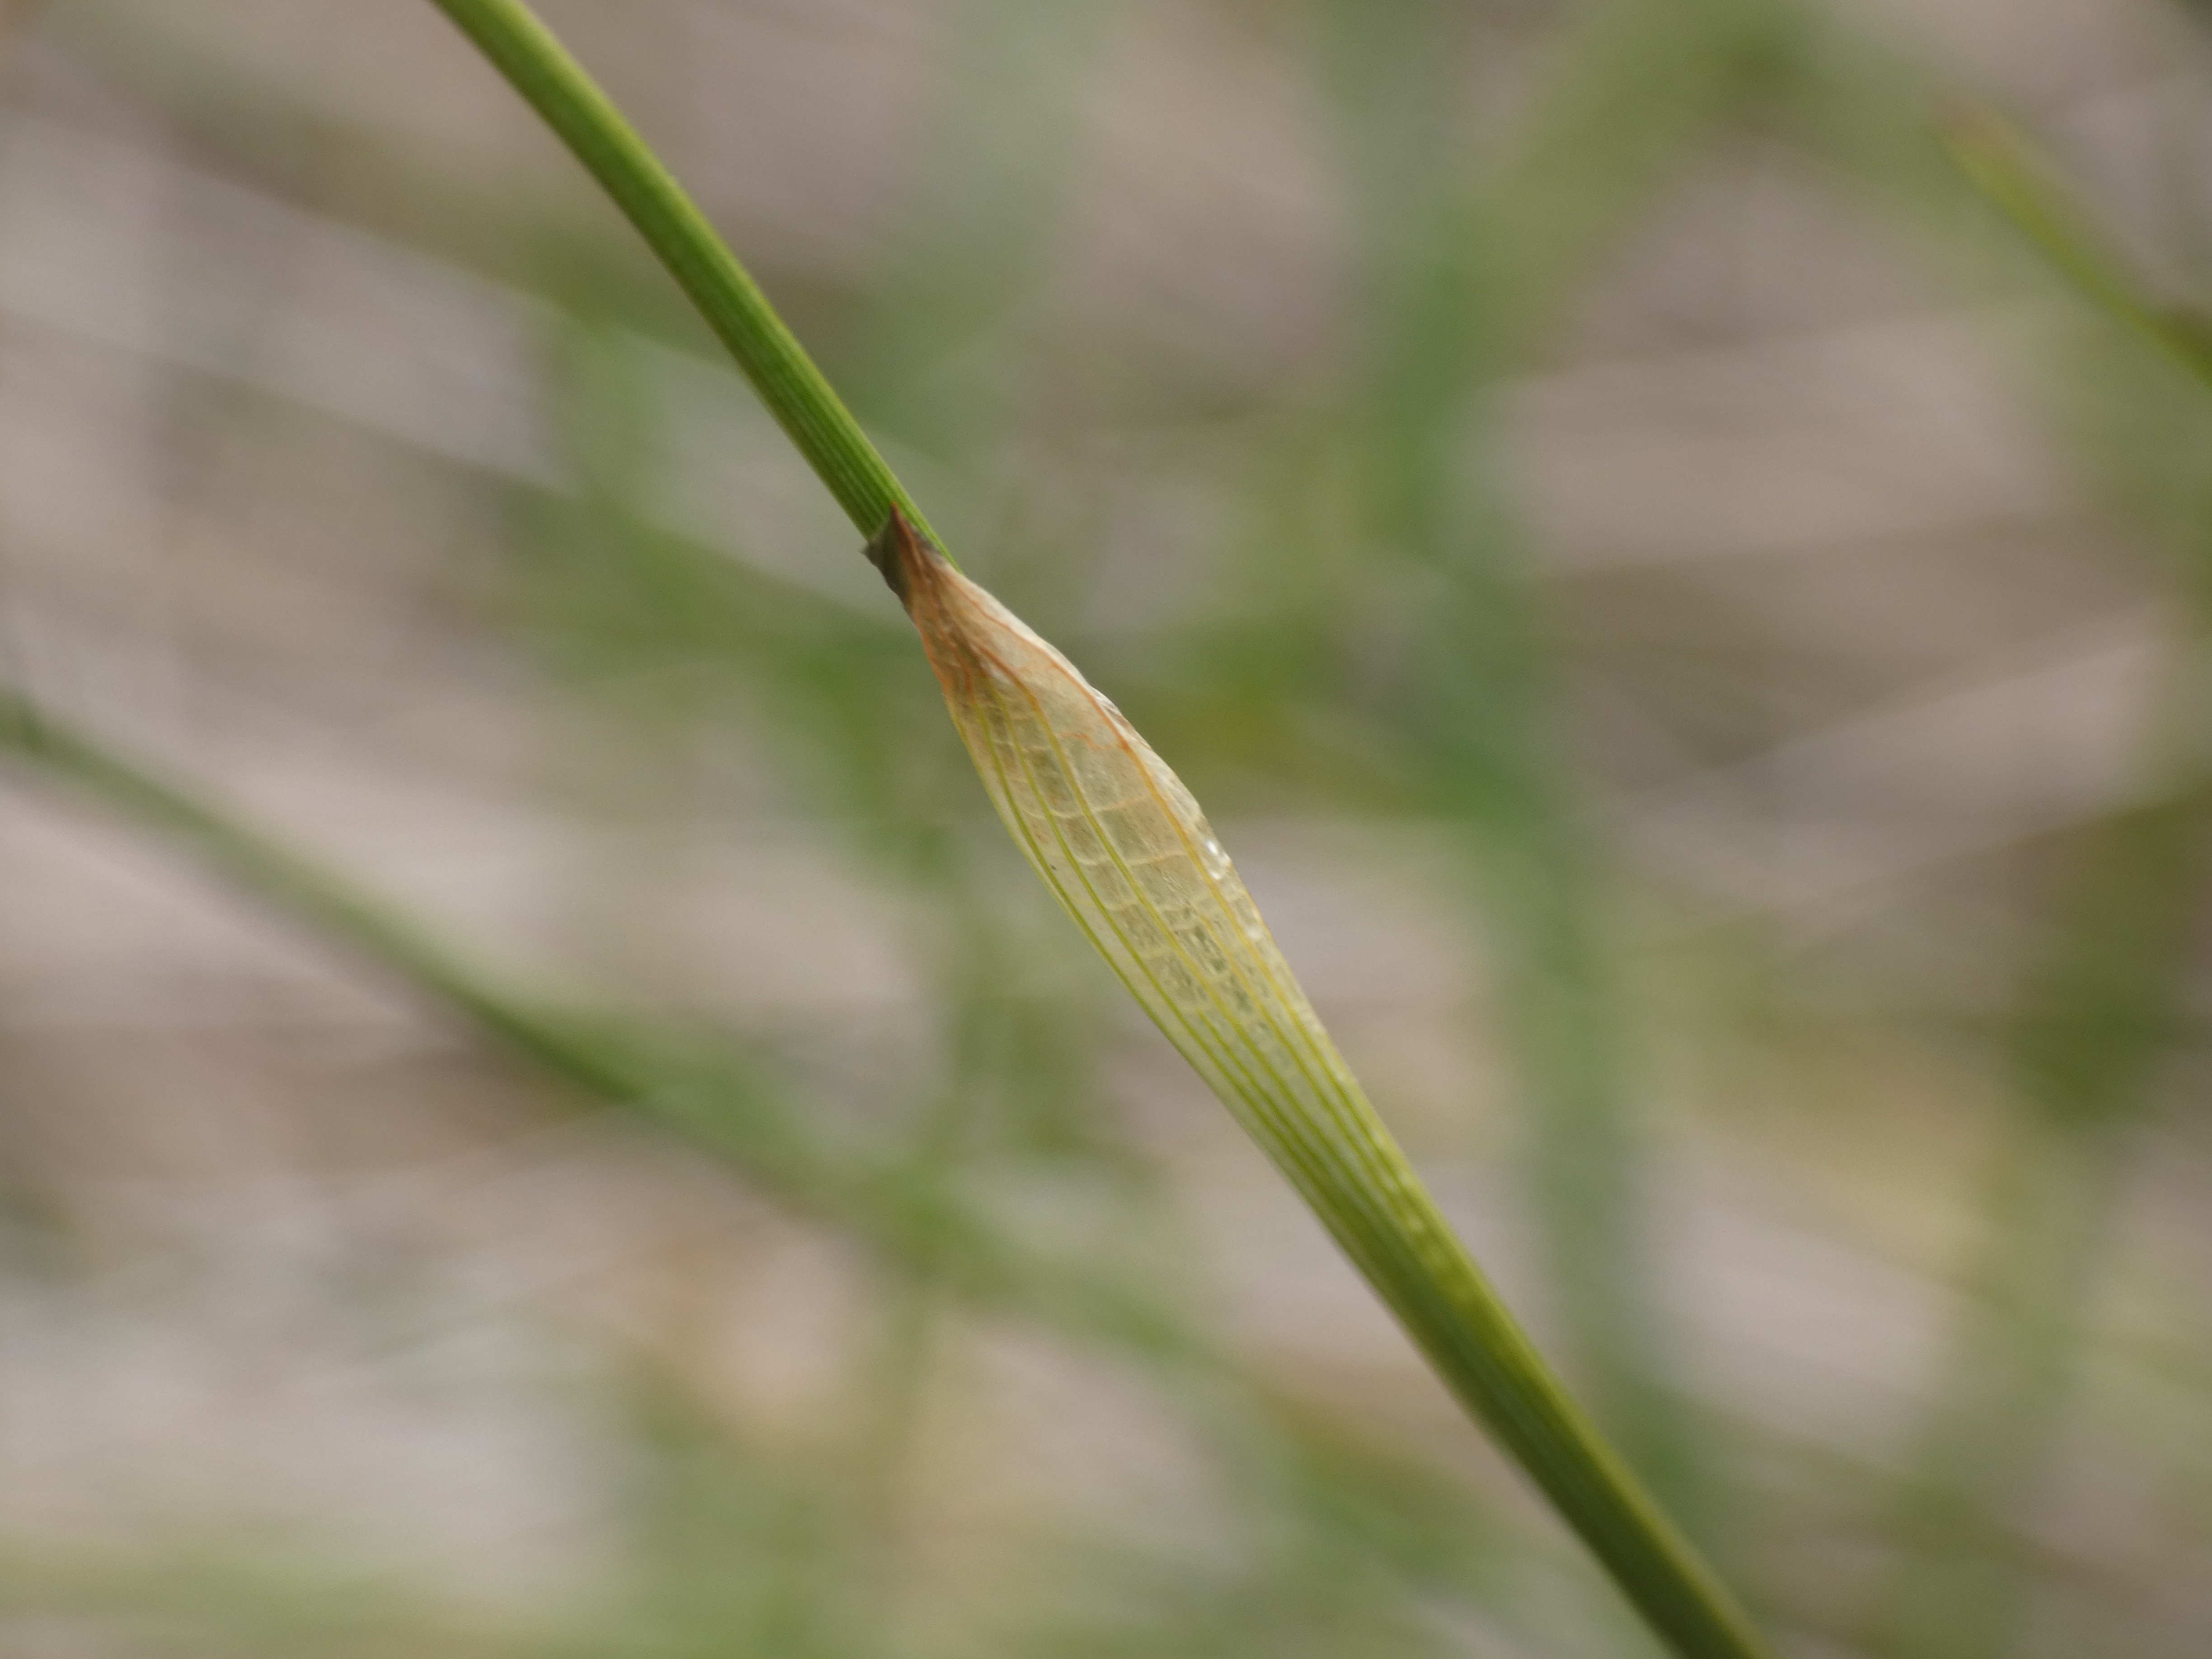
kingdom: Plantae
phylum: Tracheophyta
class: Liliopsida
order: Poales
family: Cyperaceae
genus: Eriophorum
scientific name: Eriophorum vaginatum
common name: Tue-kæruld
